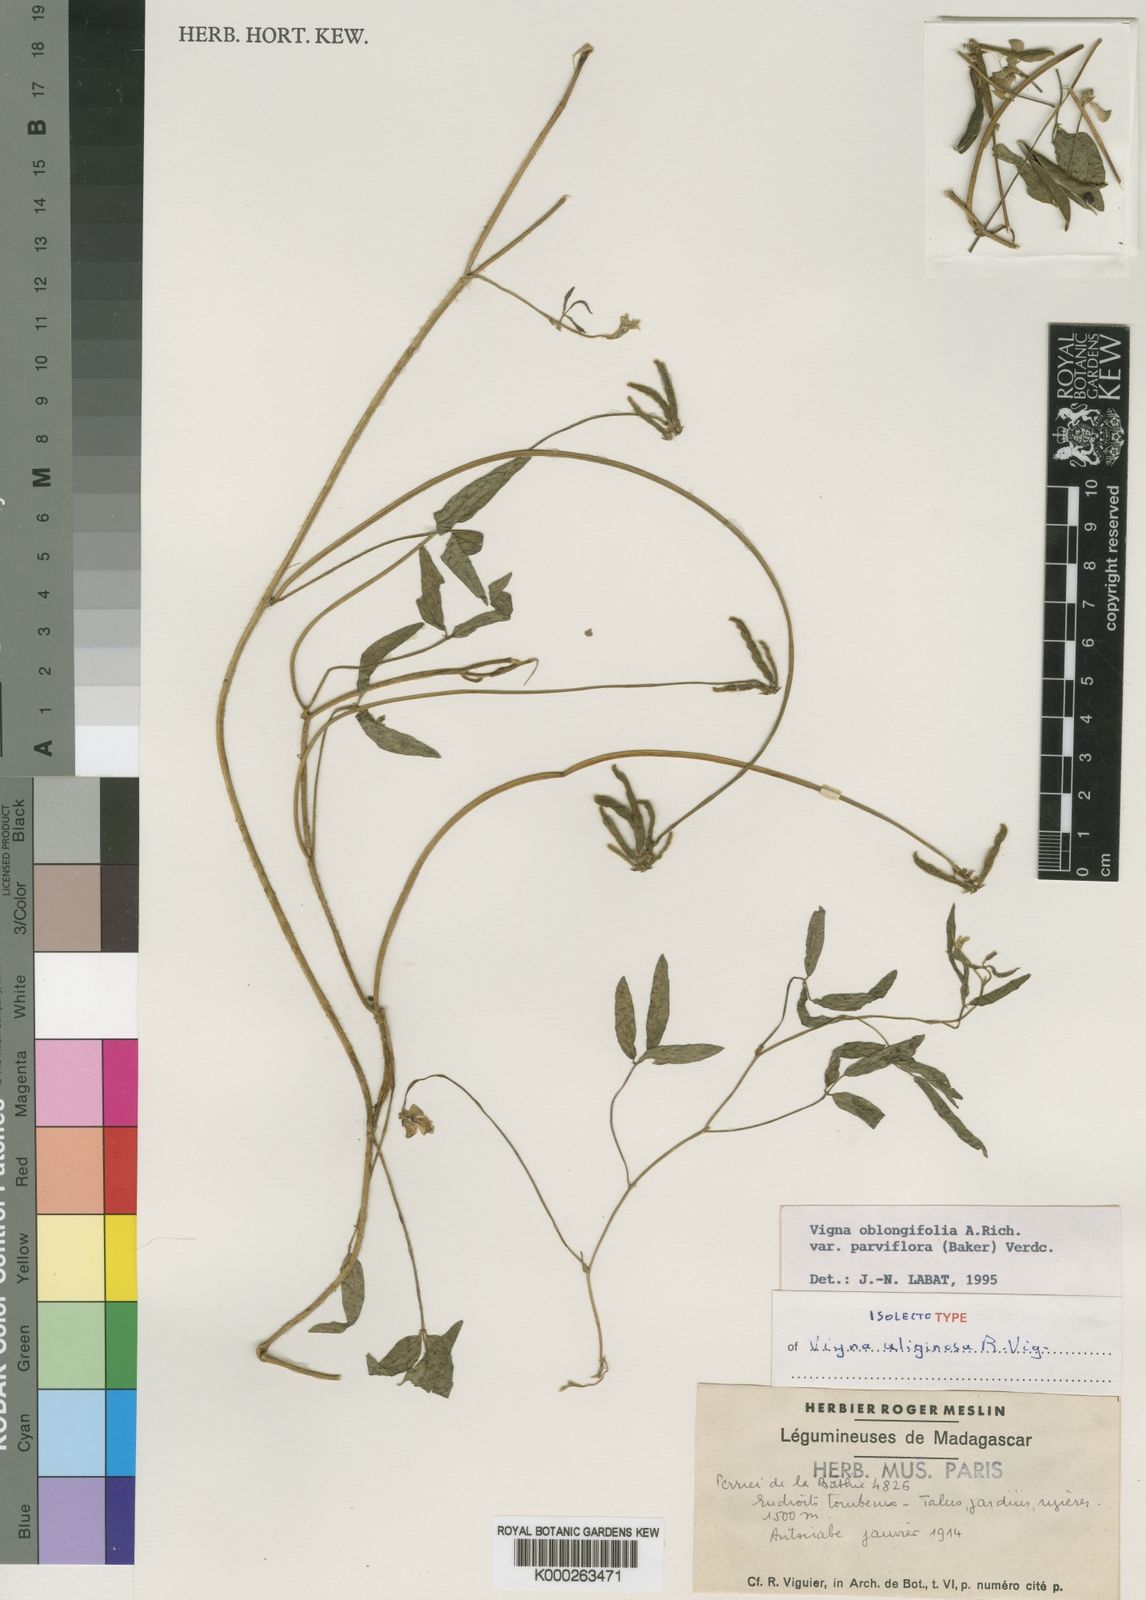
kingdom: Plantae
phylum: Tracheophyta
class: Magnoliopsida
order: Fabales
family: Fabaceae
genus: Vigna
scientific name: Vigna oblongifolia
